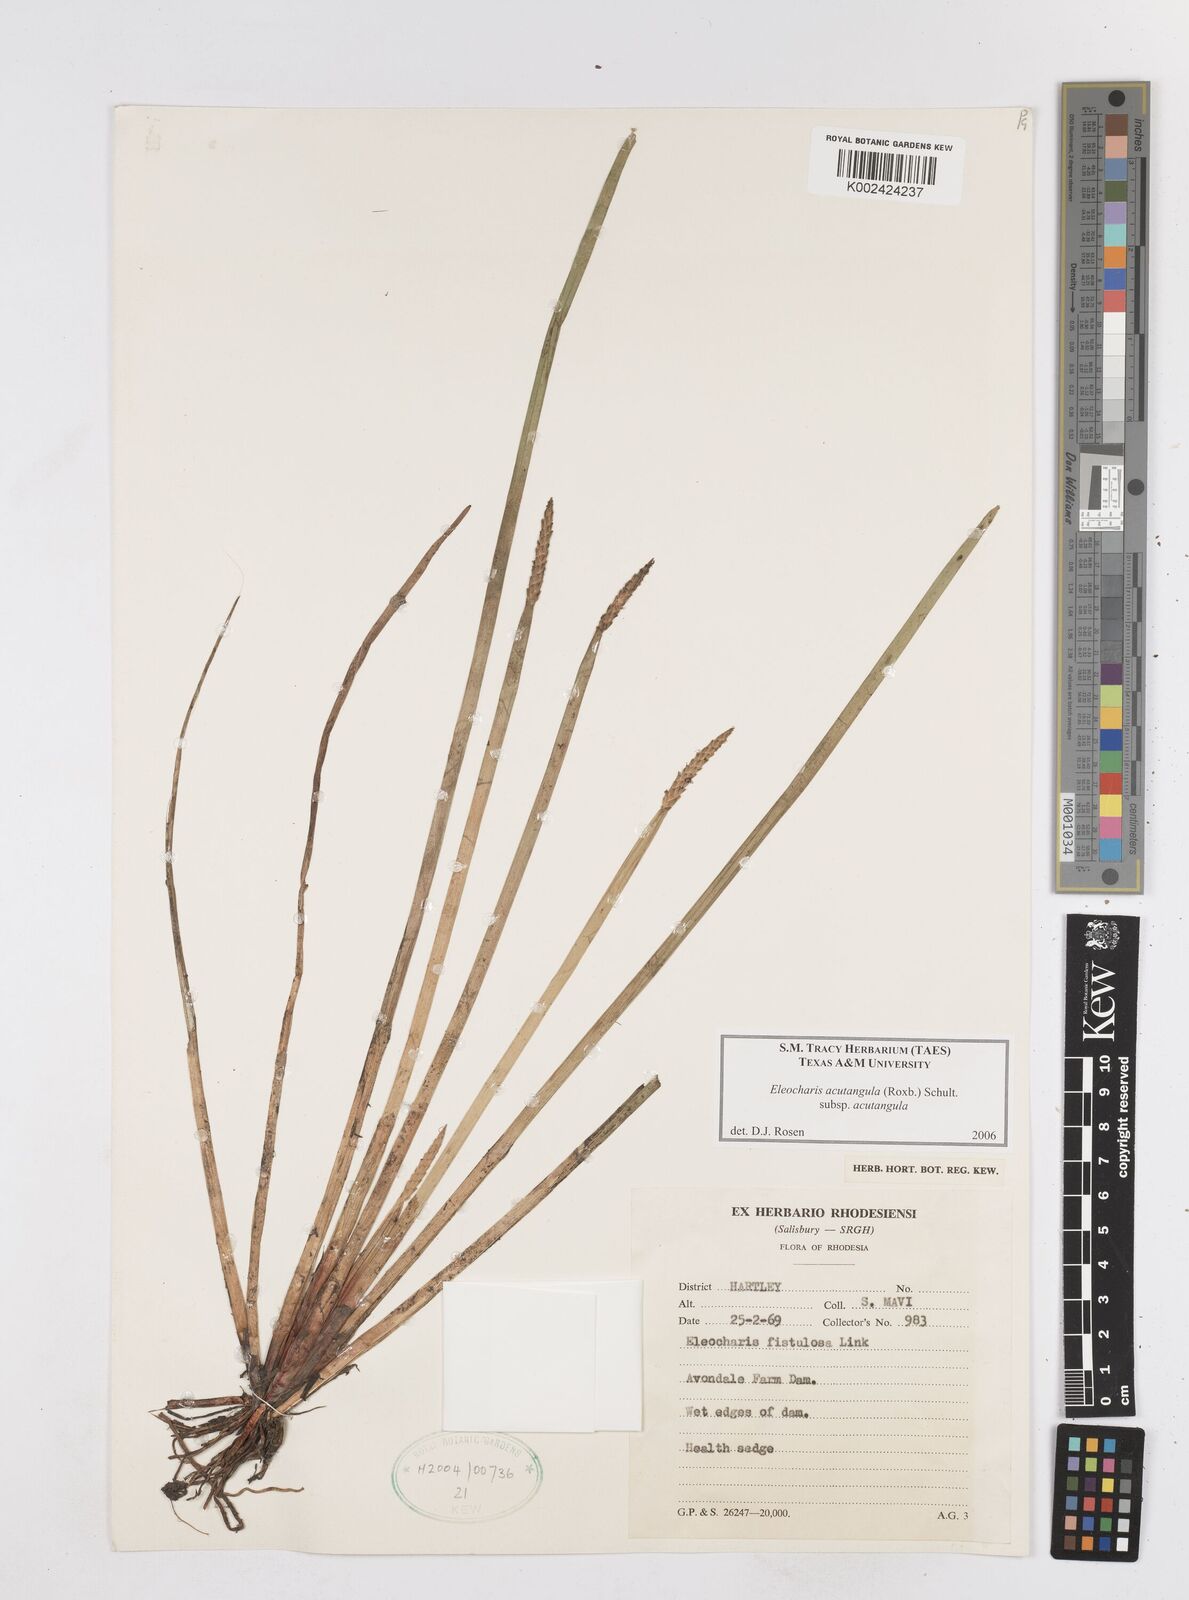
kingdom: Plantae
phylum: Tracheophyta
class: Liliopsida
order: Poales
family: Cyperaceae
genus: Eleocharis
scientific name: Eleocharis acutangula
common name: Acute spikerush
